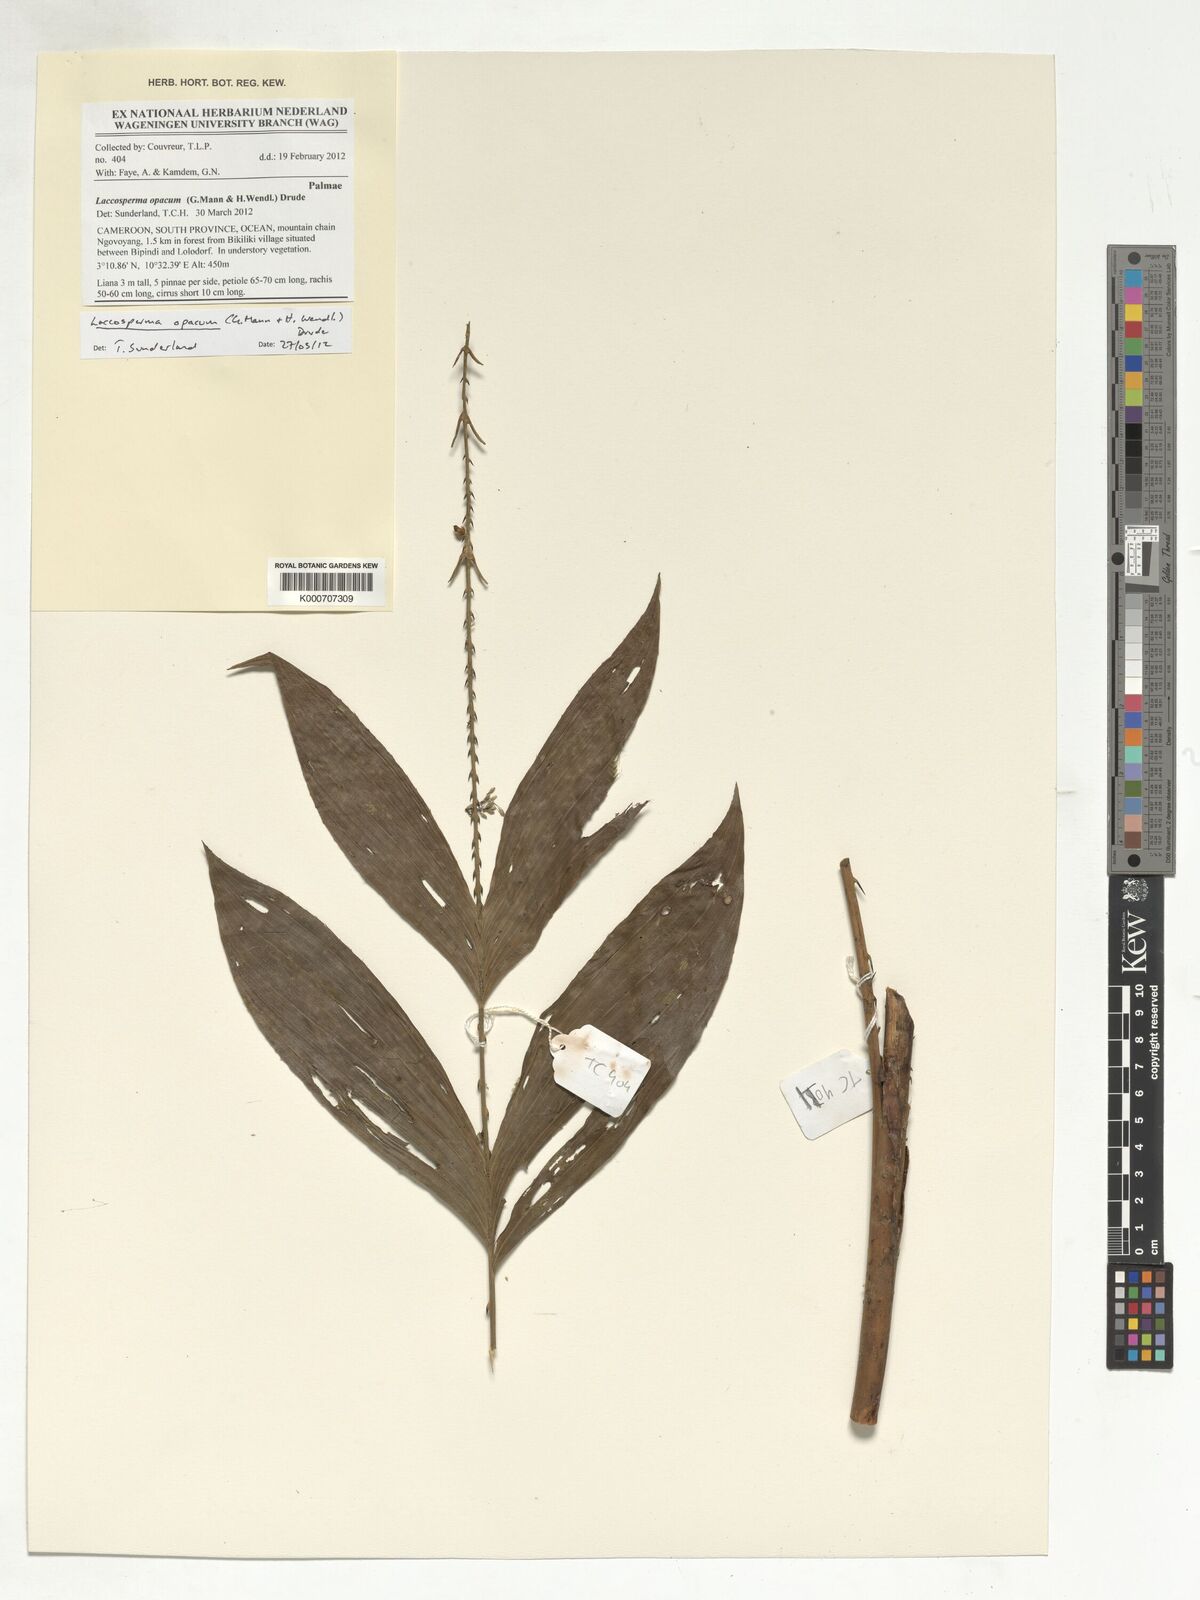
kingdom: Plantae
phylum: Tracheophyta
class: Liliopsida
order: Arecales
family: Arecaceae
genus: Laccosperma
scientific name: Laccosperma opacum
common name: Rattan
